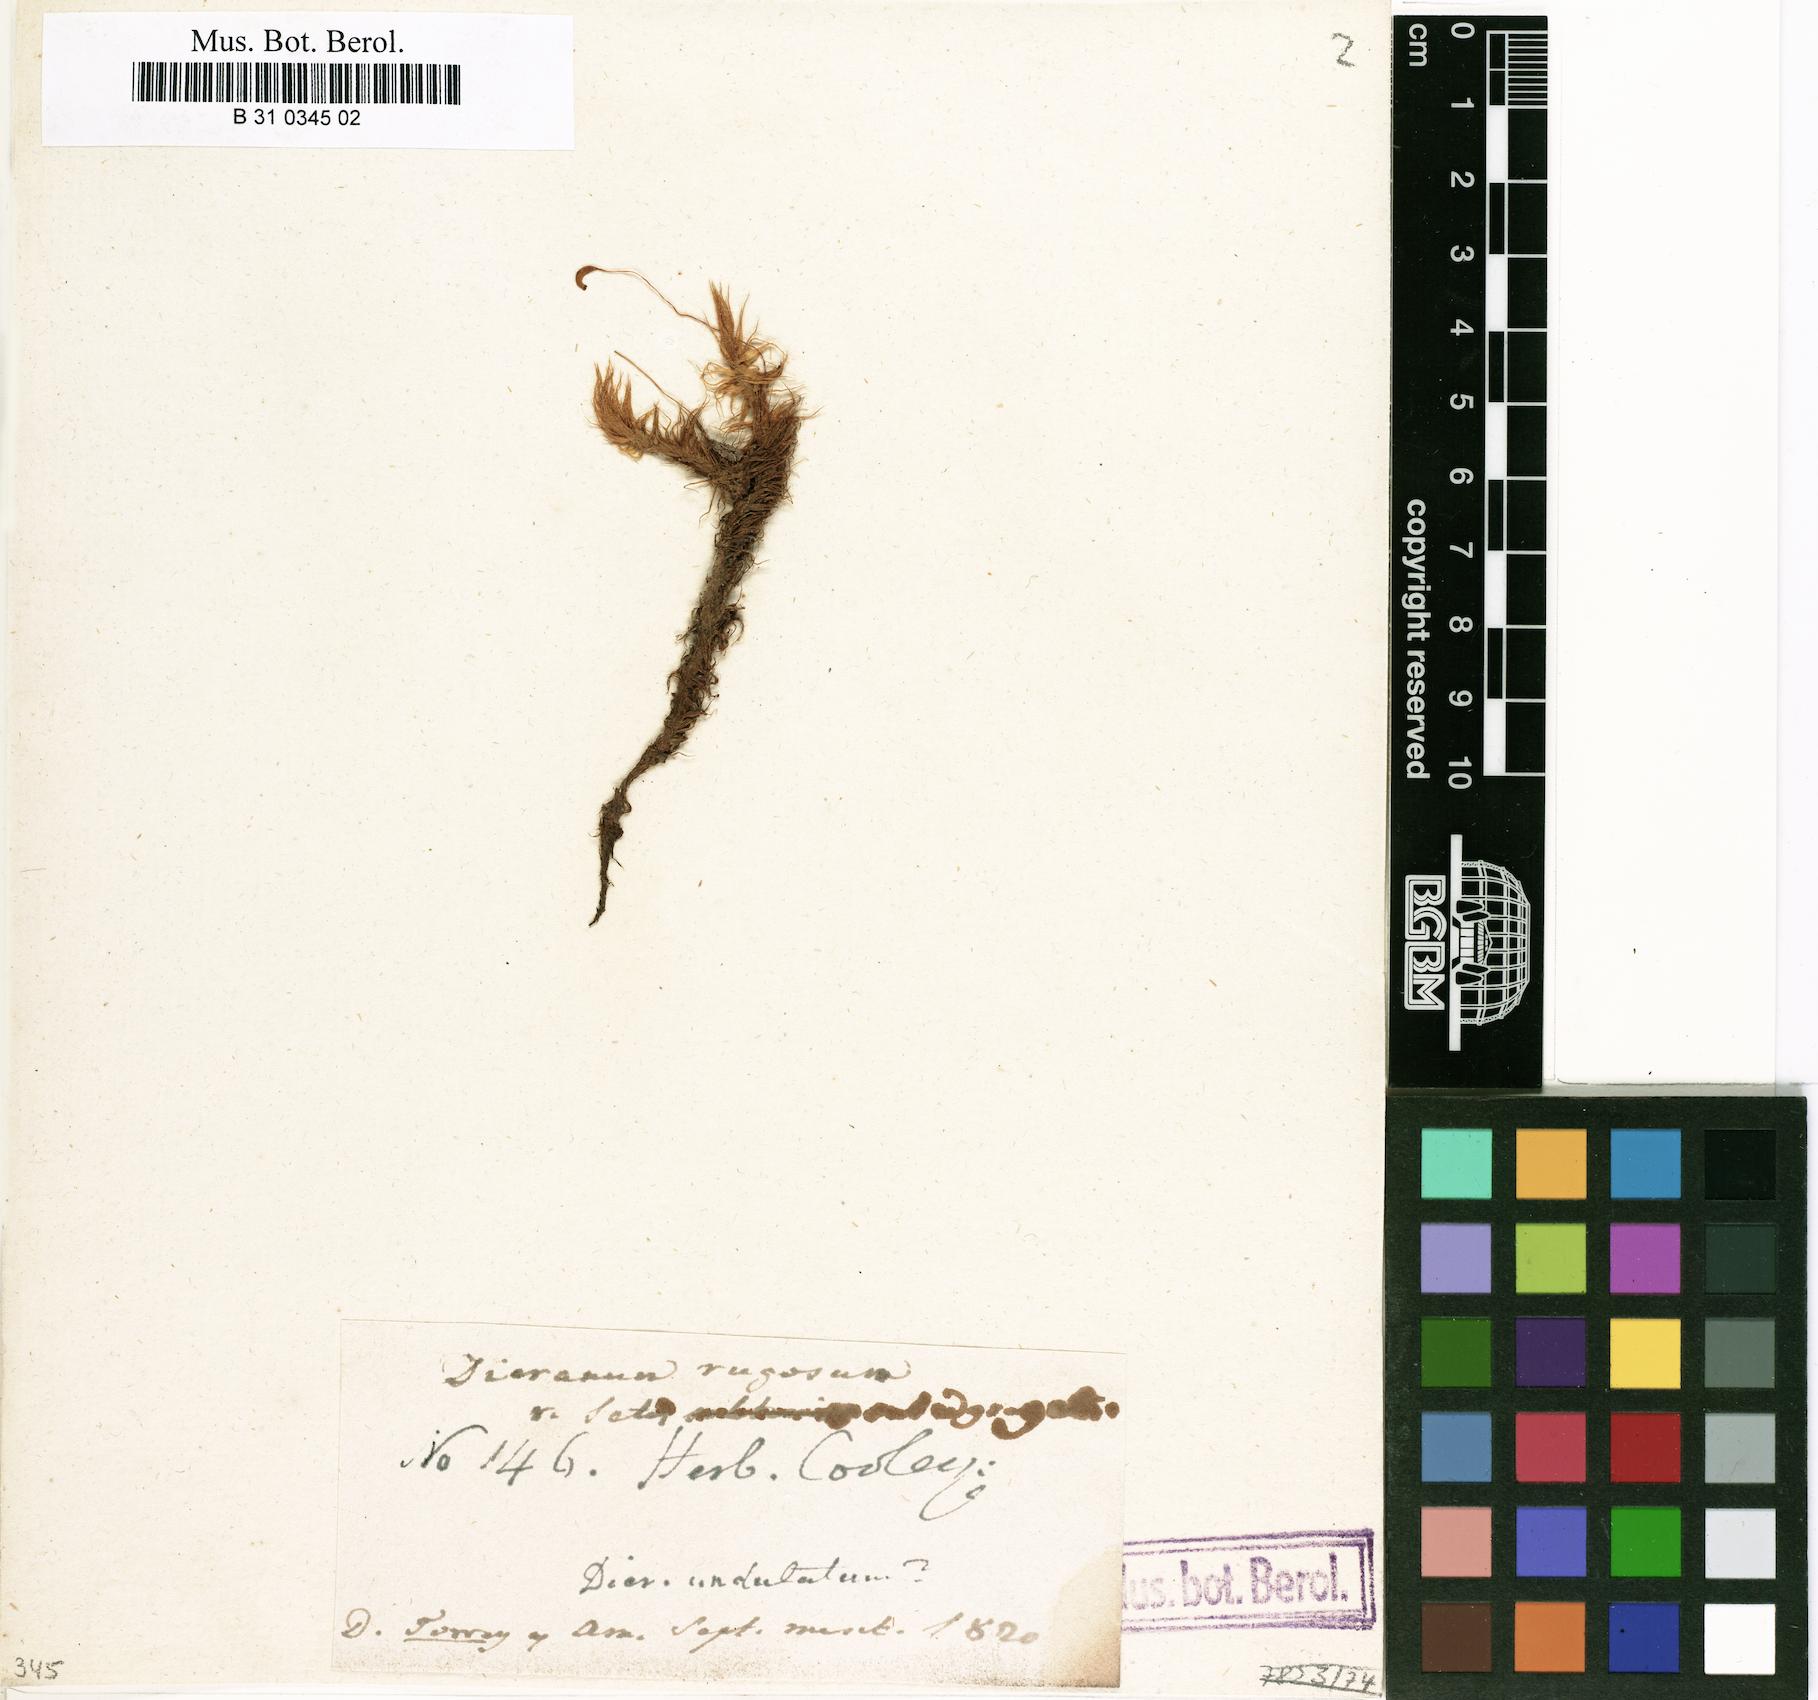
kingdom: Plantae
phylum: Bryophyta
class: Bryopsida
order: Dicranales
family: Dicranaceae
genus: Dicranum
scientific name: Dicranum polysetum
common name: Rugose fork-moss
